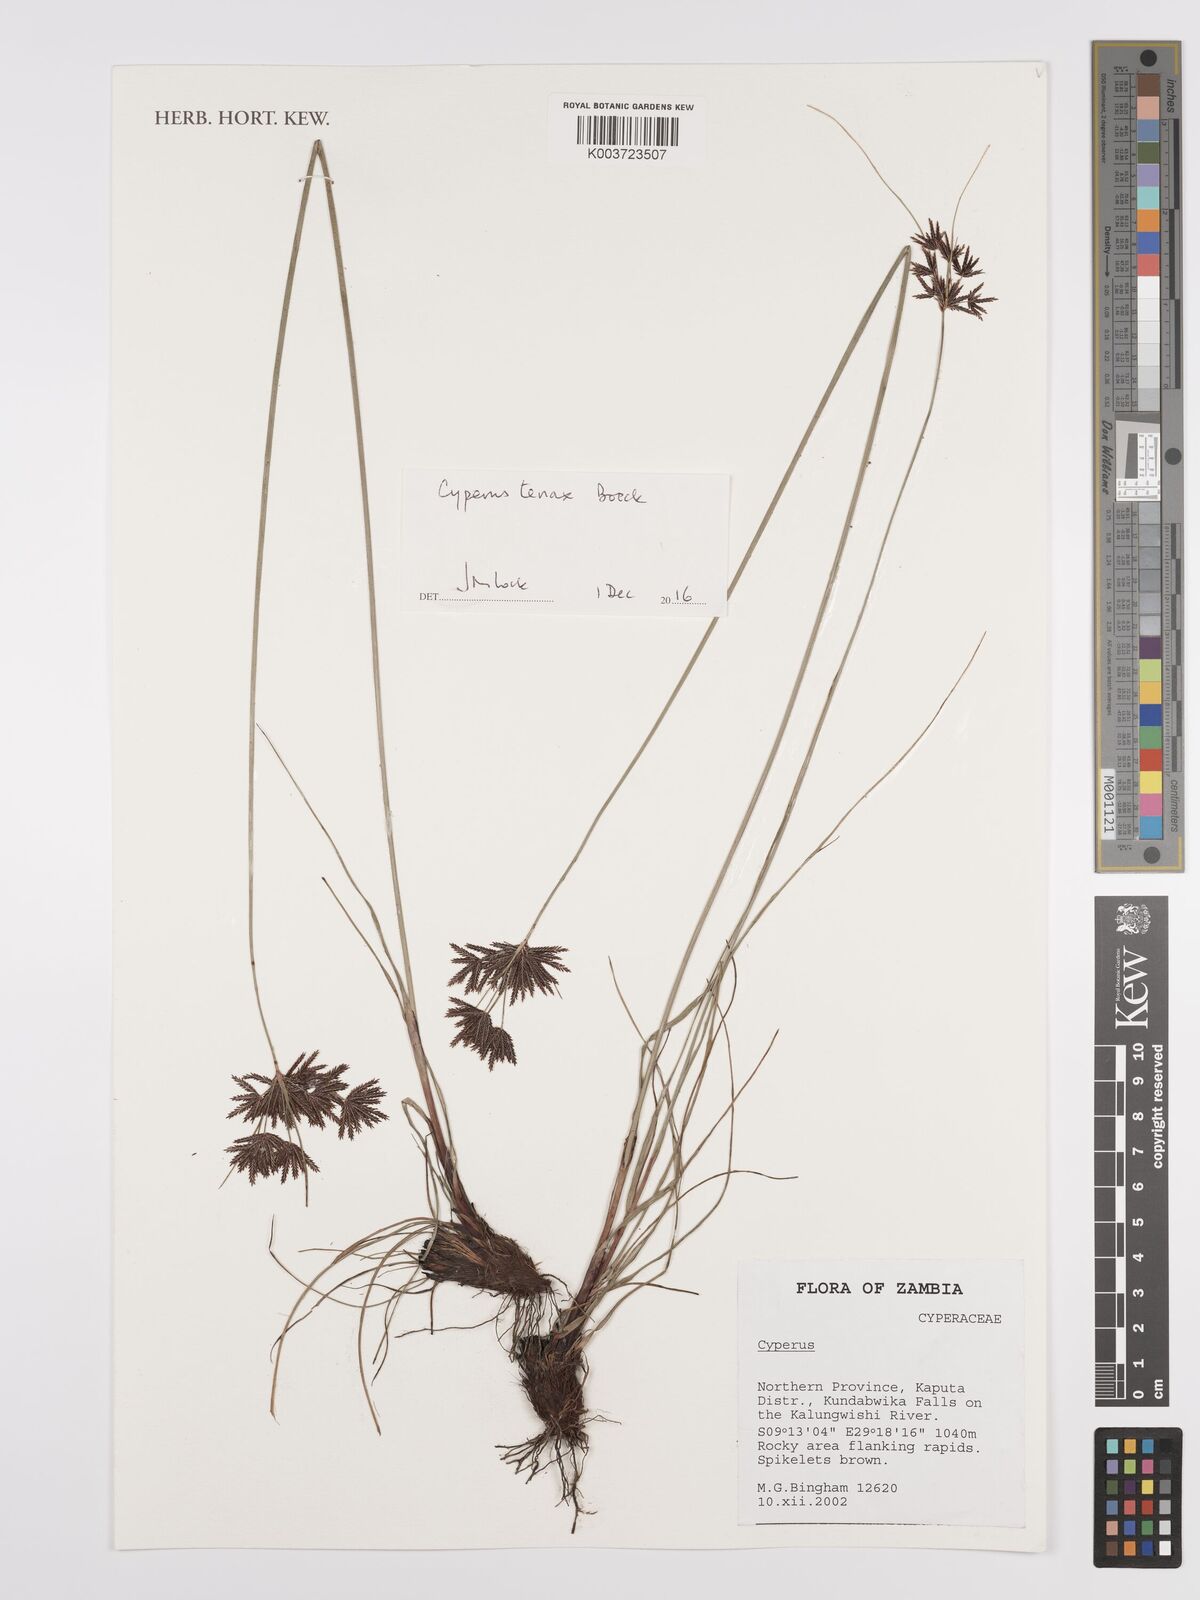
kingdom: Plantae
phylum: Tracheophyta
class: Liliopsida
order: Poales
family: Cyperaceae
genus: Cyperus
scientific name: Cyperus tenax
